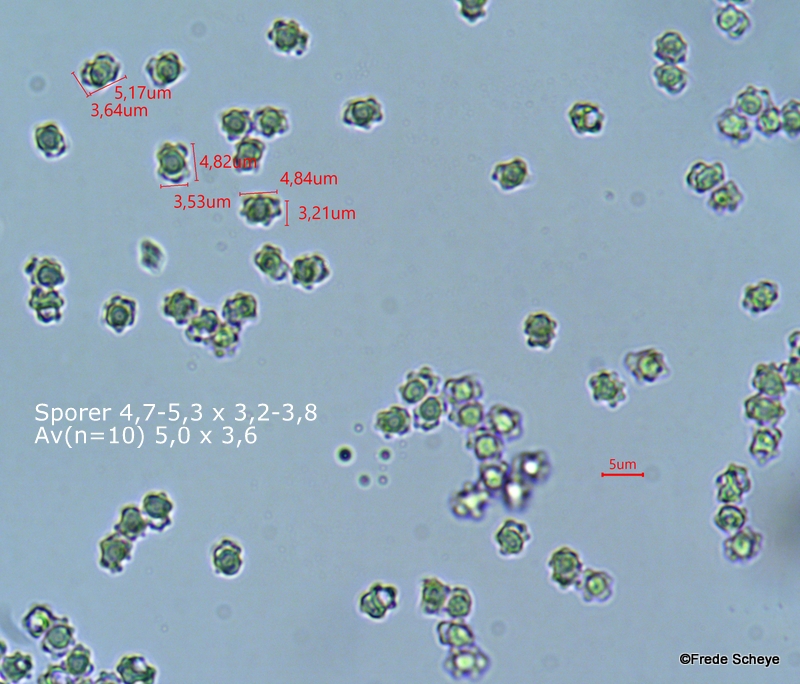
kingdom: Fungi
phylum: Basidiomycota
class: Agaricomycetes
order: Thelephorales
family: Bankeraceae
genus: Hydnellum
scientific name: Hydnellum concrescens
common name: bæltet korkpigsvamp
